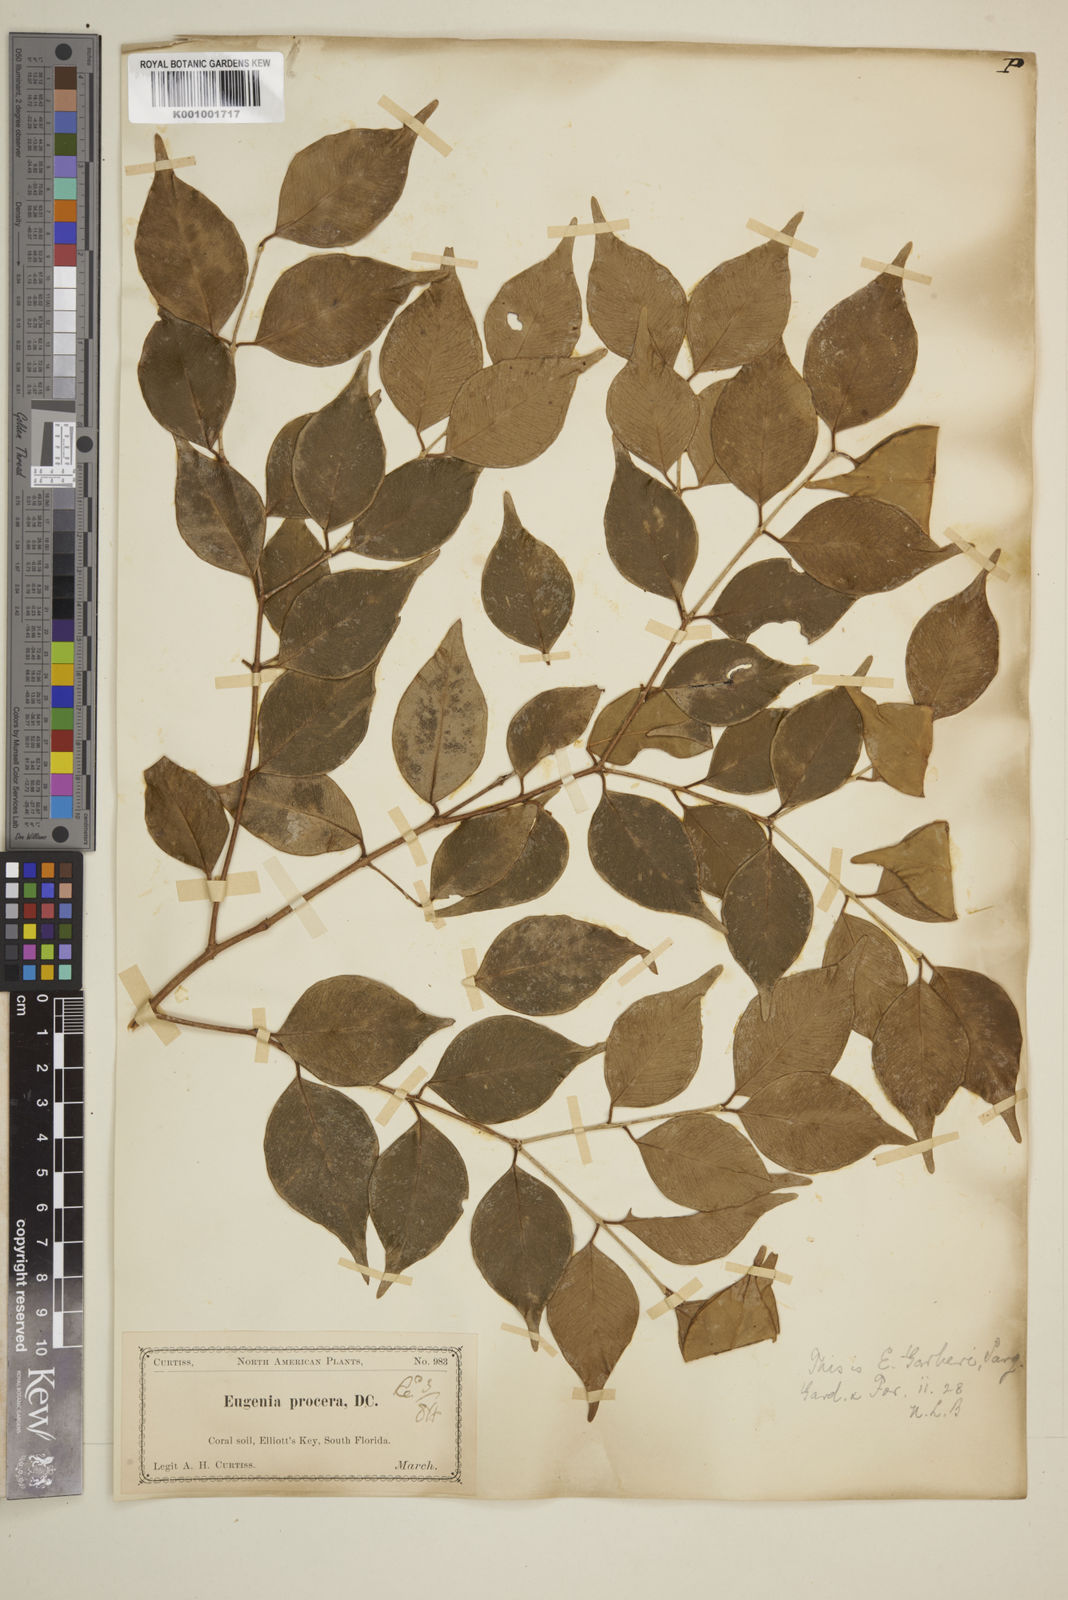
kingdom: Plantae
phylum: Tracheophyta
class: Magnoliopsida
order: Myrtales
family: Myrtaceae
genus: Eugenia
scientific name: Eugenia confusa
